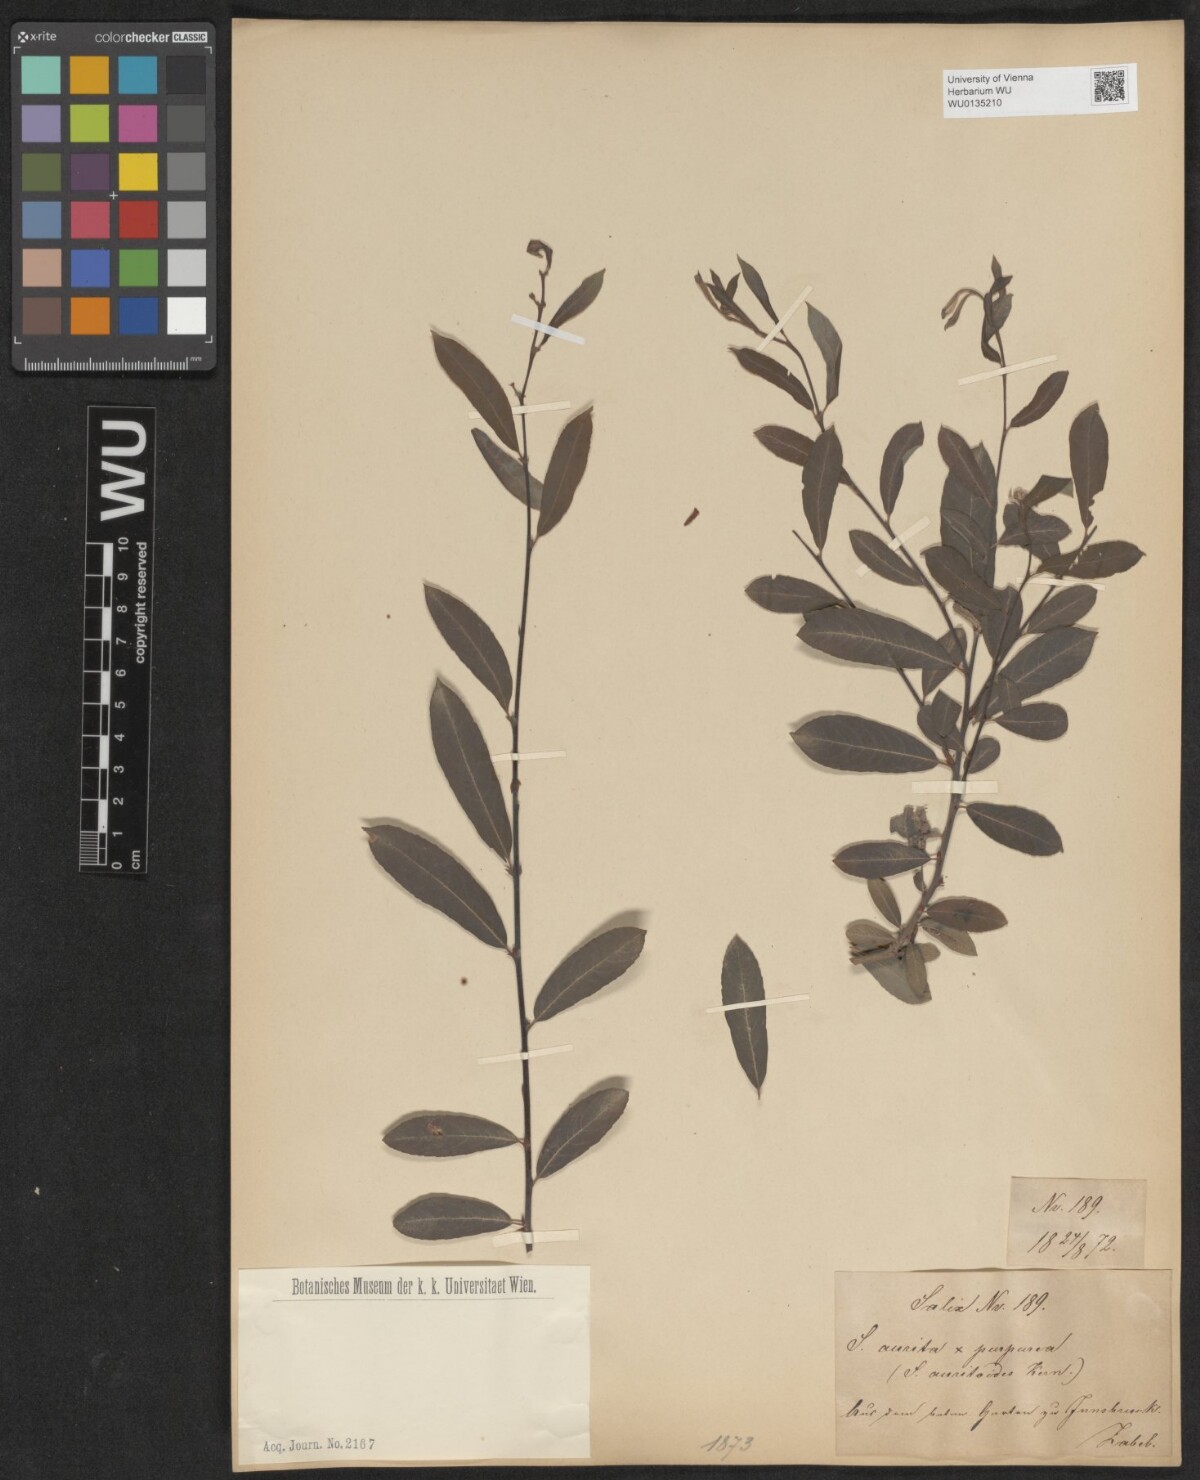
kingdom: Plantae
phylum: Tracheophyta
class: Magnoliopsida
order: Malpighiales
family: Salicaceae
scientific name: Salicaceae
